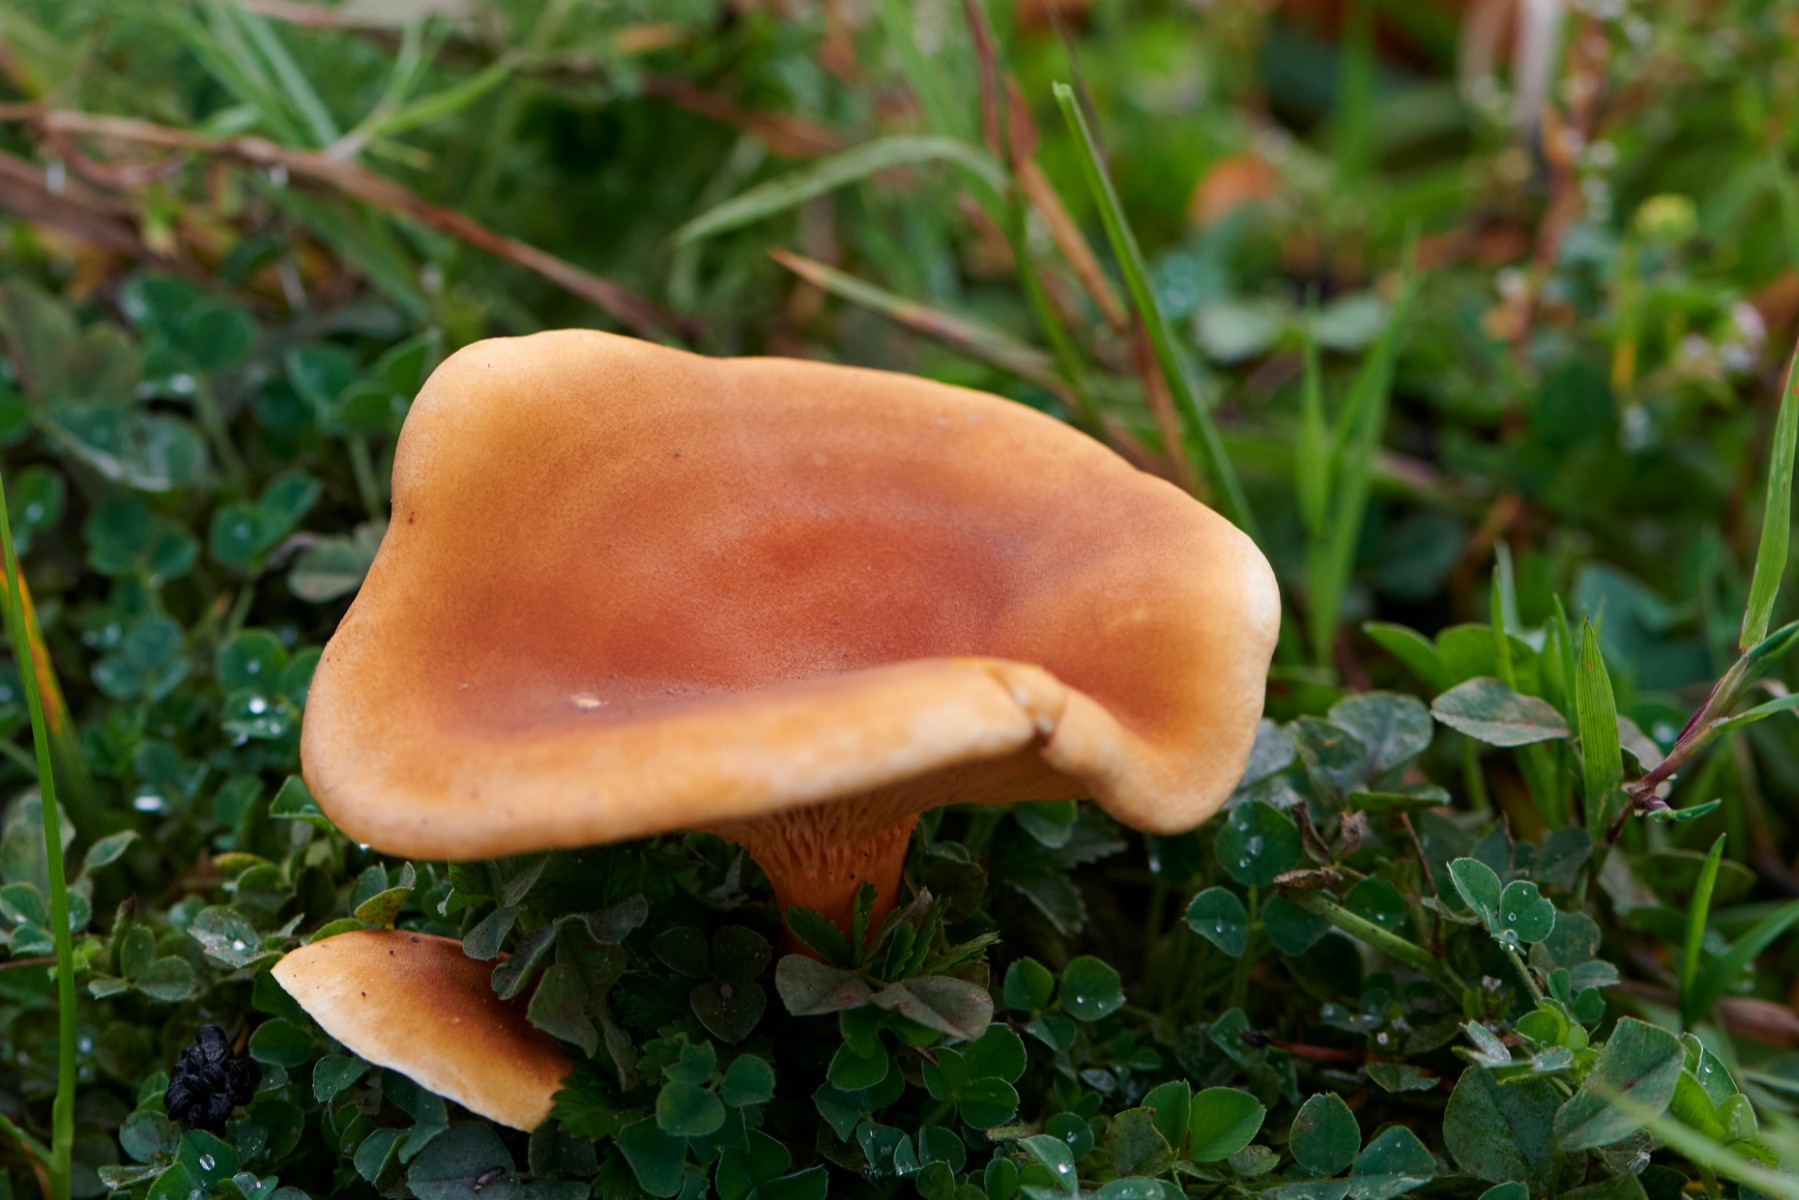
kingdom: Fungi
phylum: Basidiomycota
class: Agaricomycetes
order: Boletales
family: Hygrophoropsidaceae
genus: Hygrophoropsis
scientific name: Hygrophoropsis rufa
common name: brunfiltet orangekantarel
